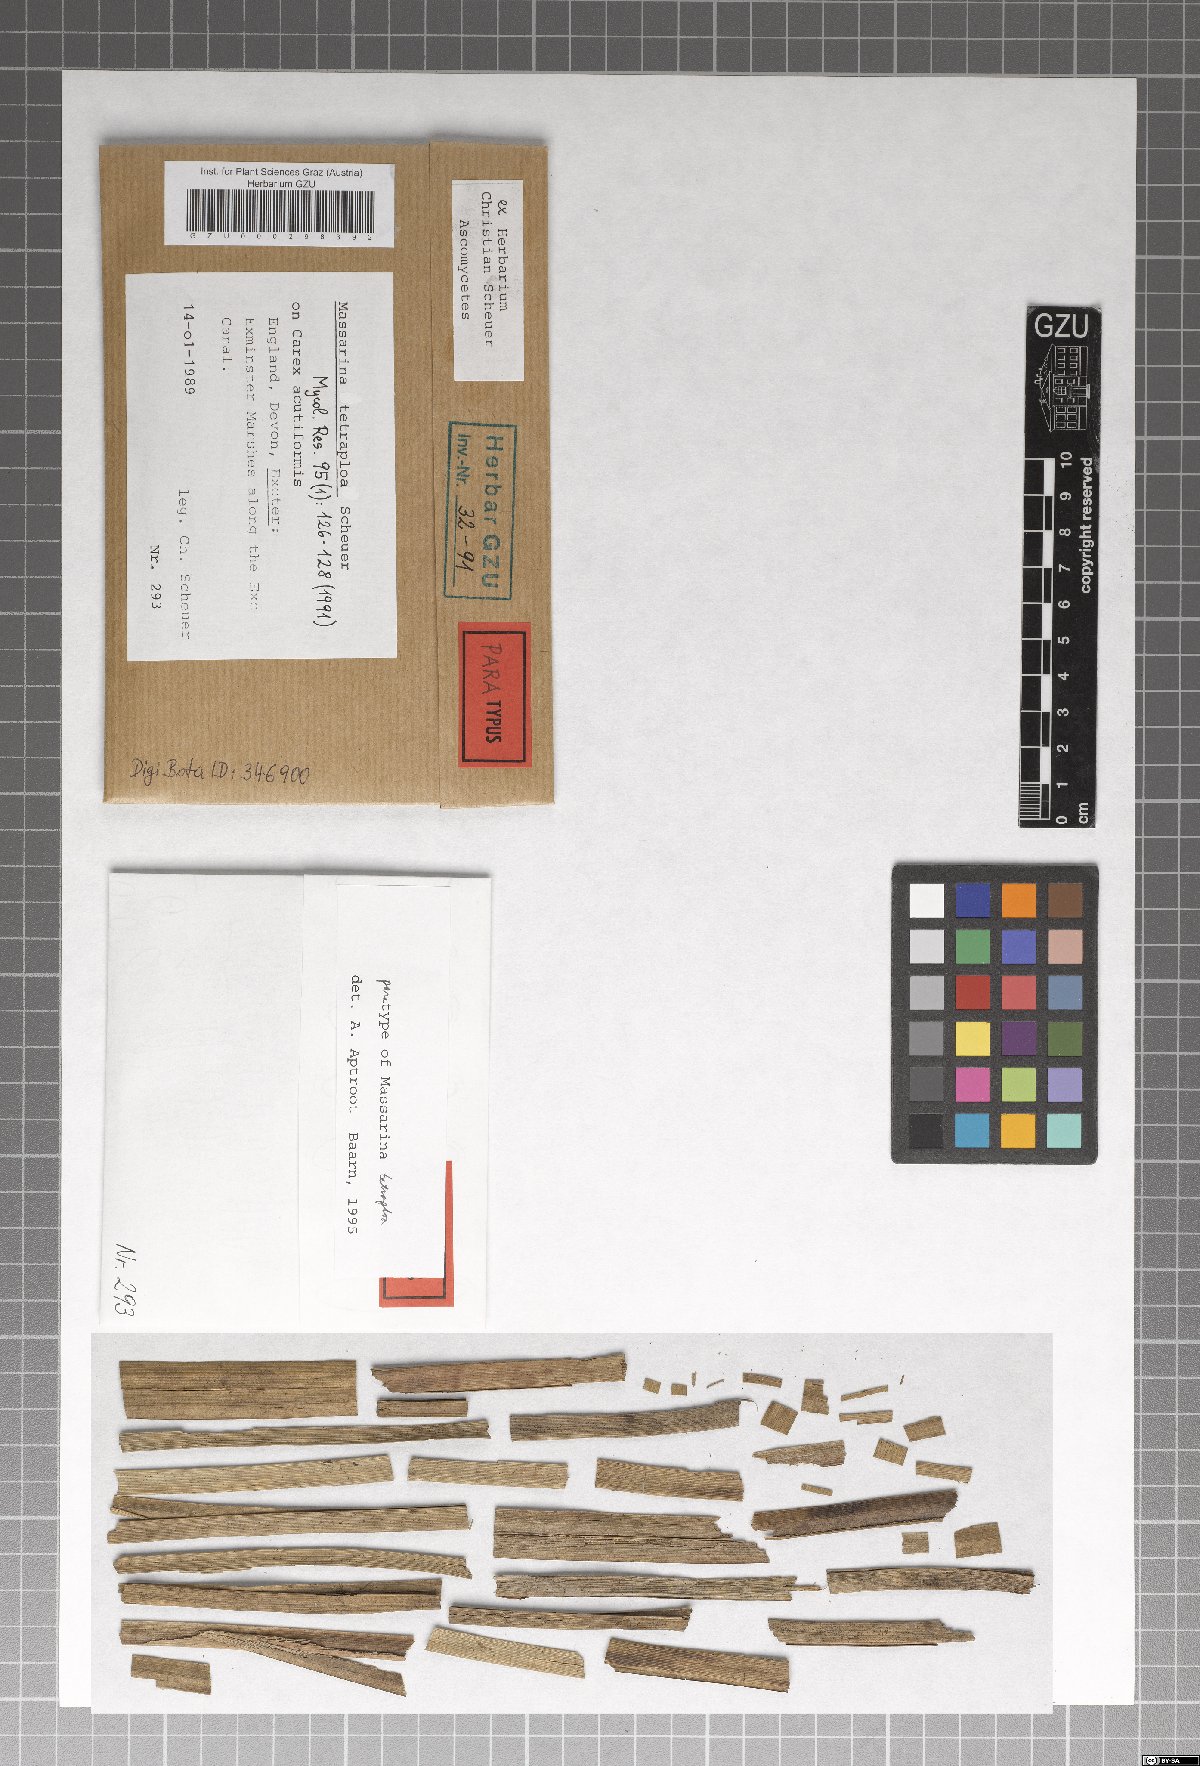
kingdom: Fungi
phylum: Ascomycota
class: Dothideomycetes
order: Pleosporales
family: Tetraplosphaeriaceae
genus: Tetraploa
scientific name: Tetraploa scheueri
